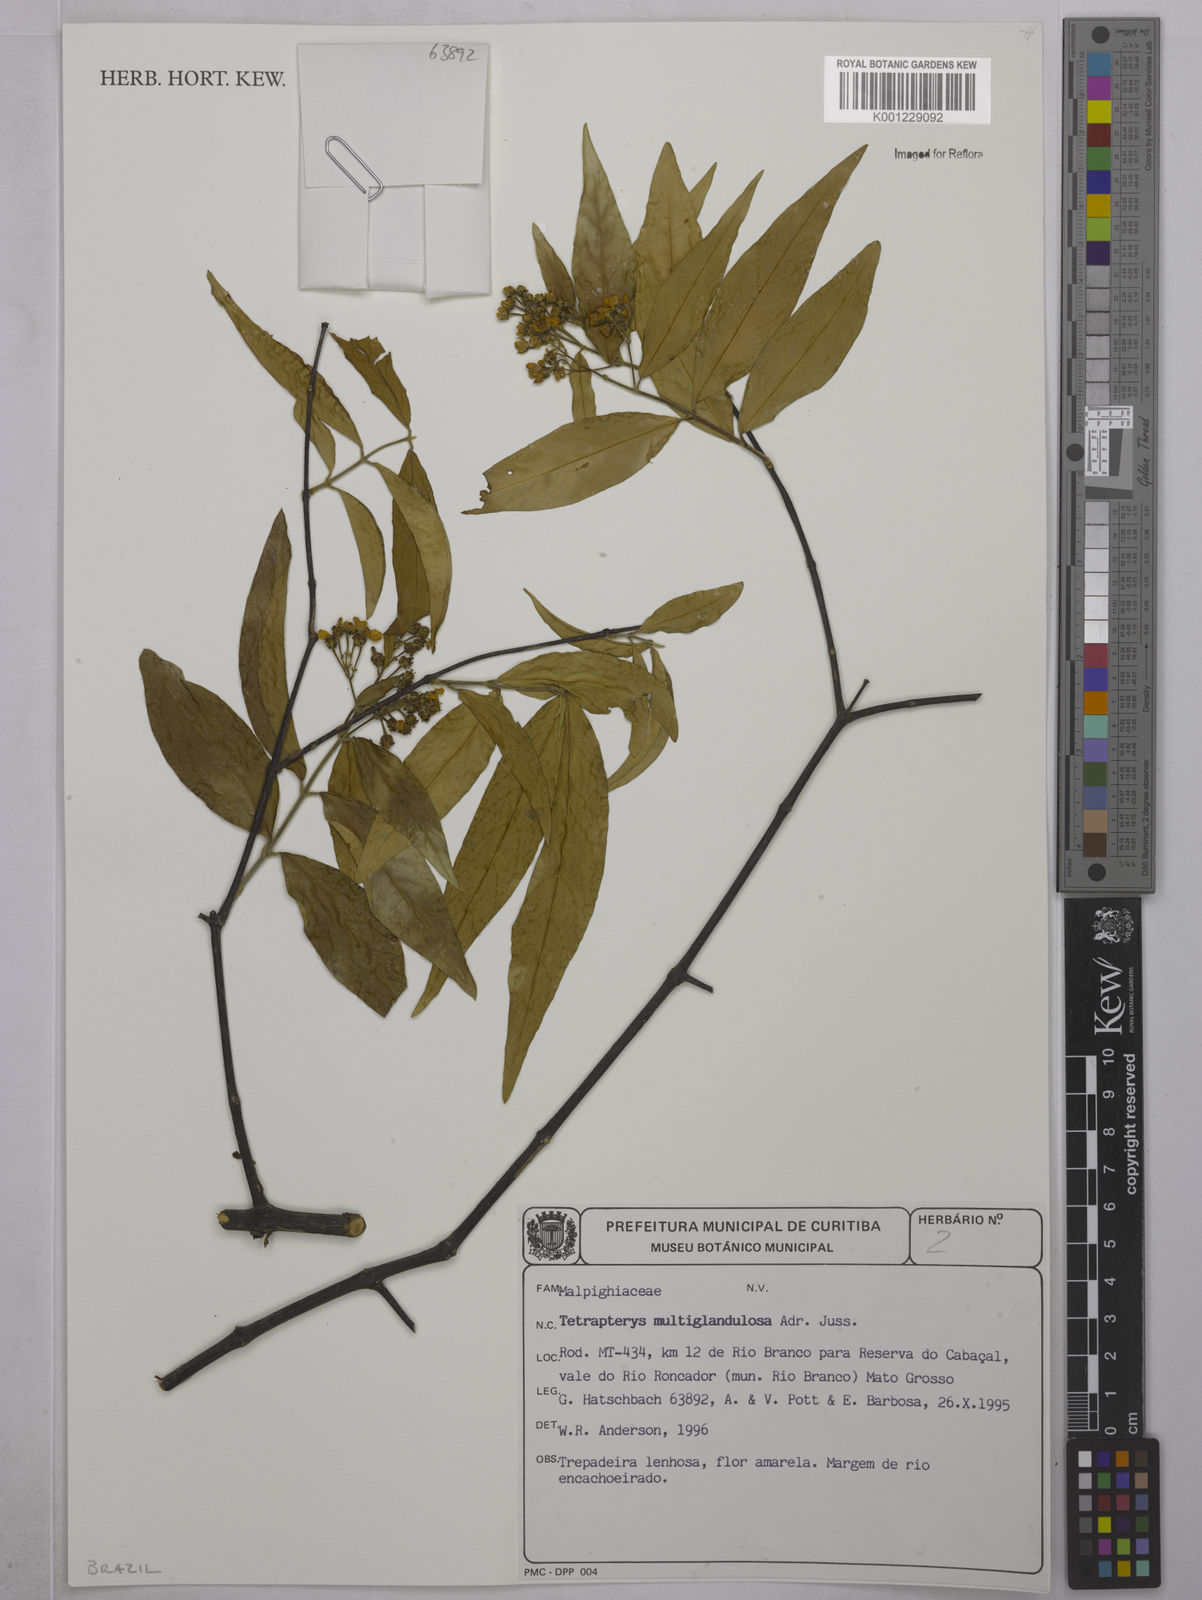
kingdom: Plantae
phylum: Tracheophyta
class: Magnoliopsida
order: Malpighiales
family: Malpighiaceae
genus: Niedenzuella
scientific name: Niedenzuella multiglandulosa
